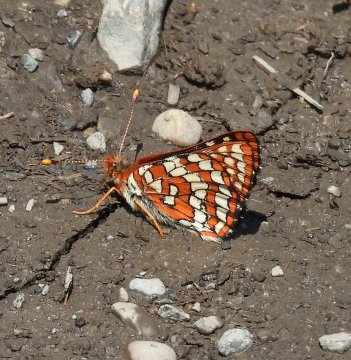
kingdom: Animalia
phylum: Arthropoda
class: Insecta
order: Lepidoptera
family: Nymphalidae
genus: Chlosyne
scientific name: Chlosyne palla
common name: Northern Checkerspot
